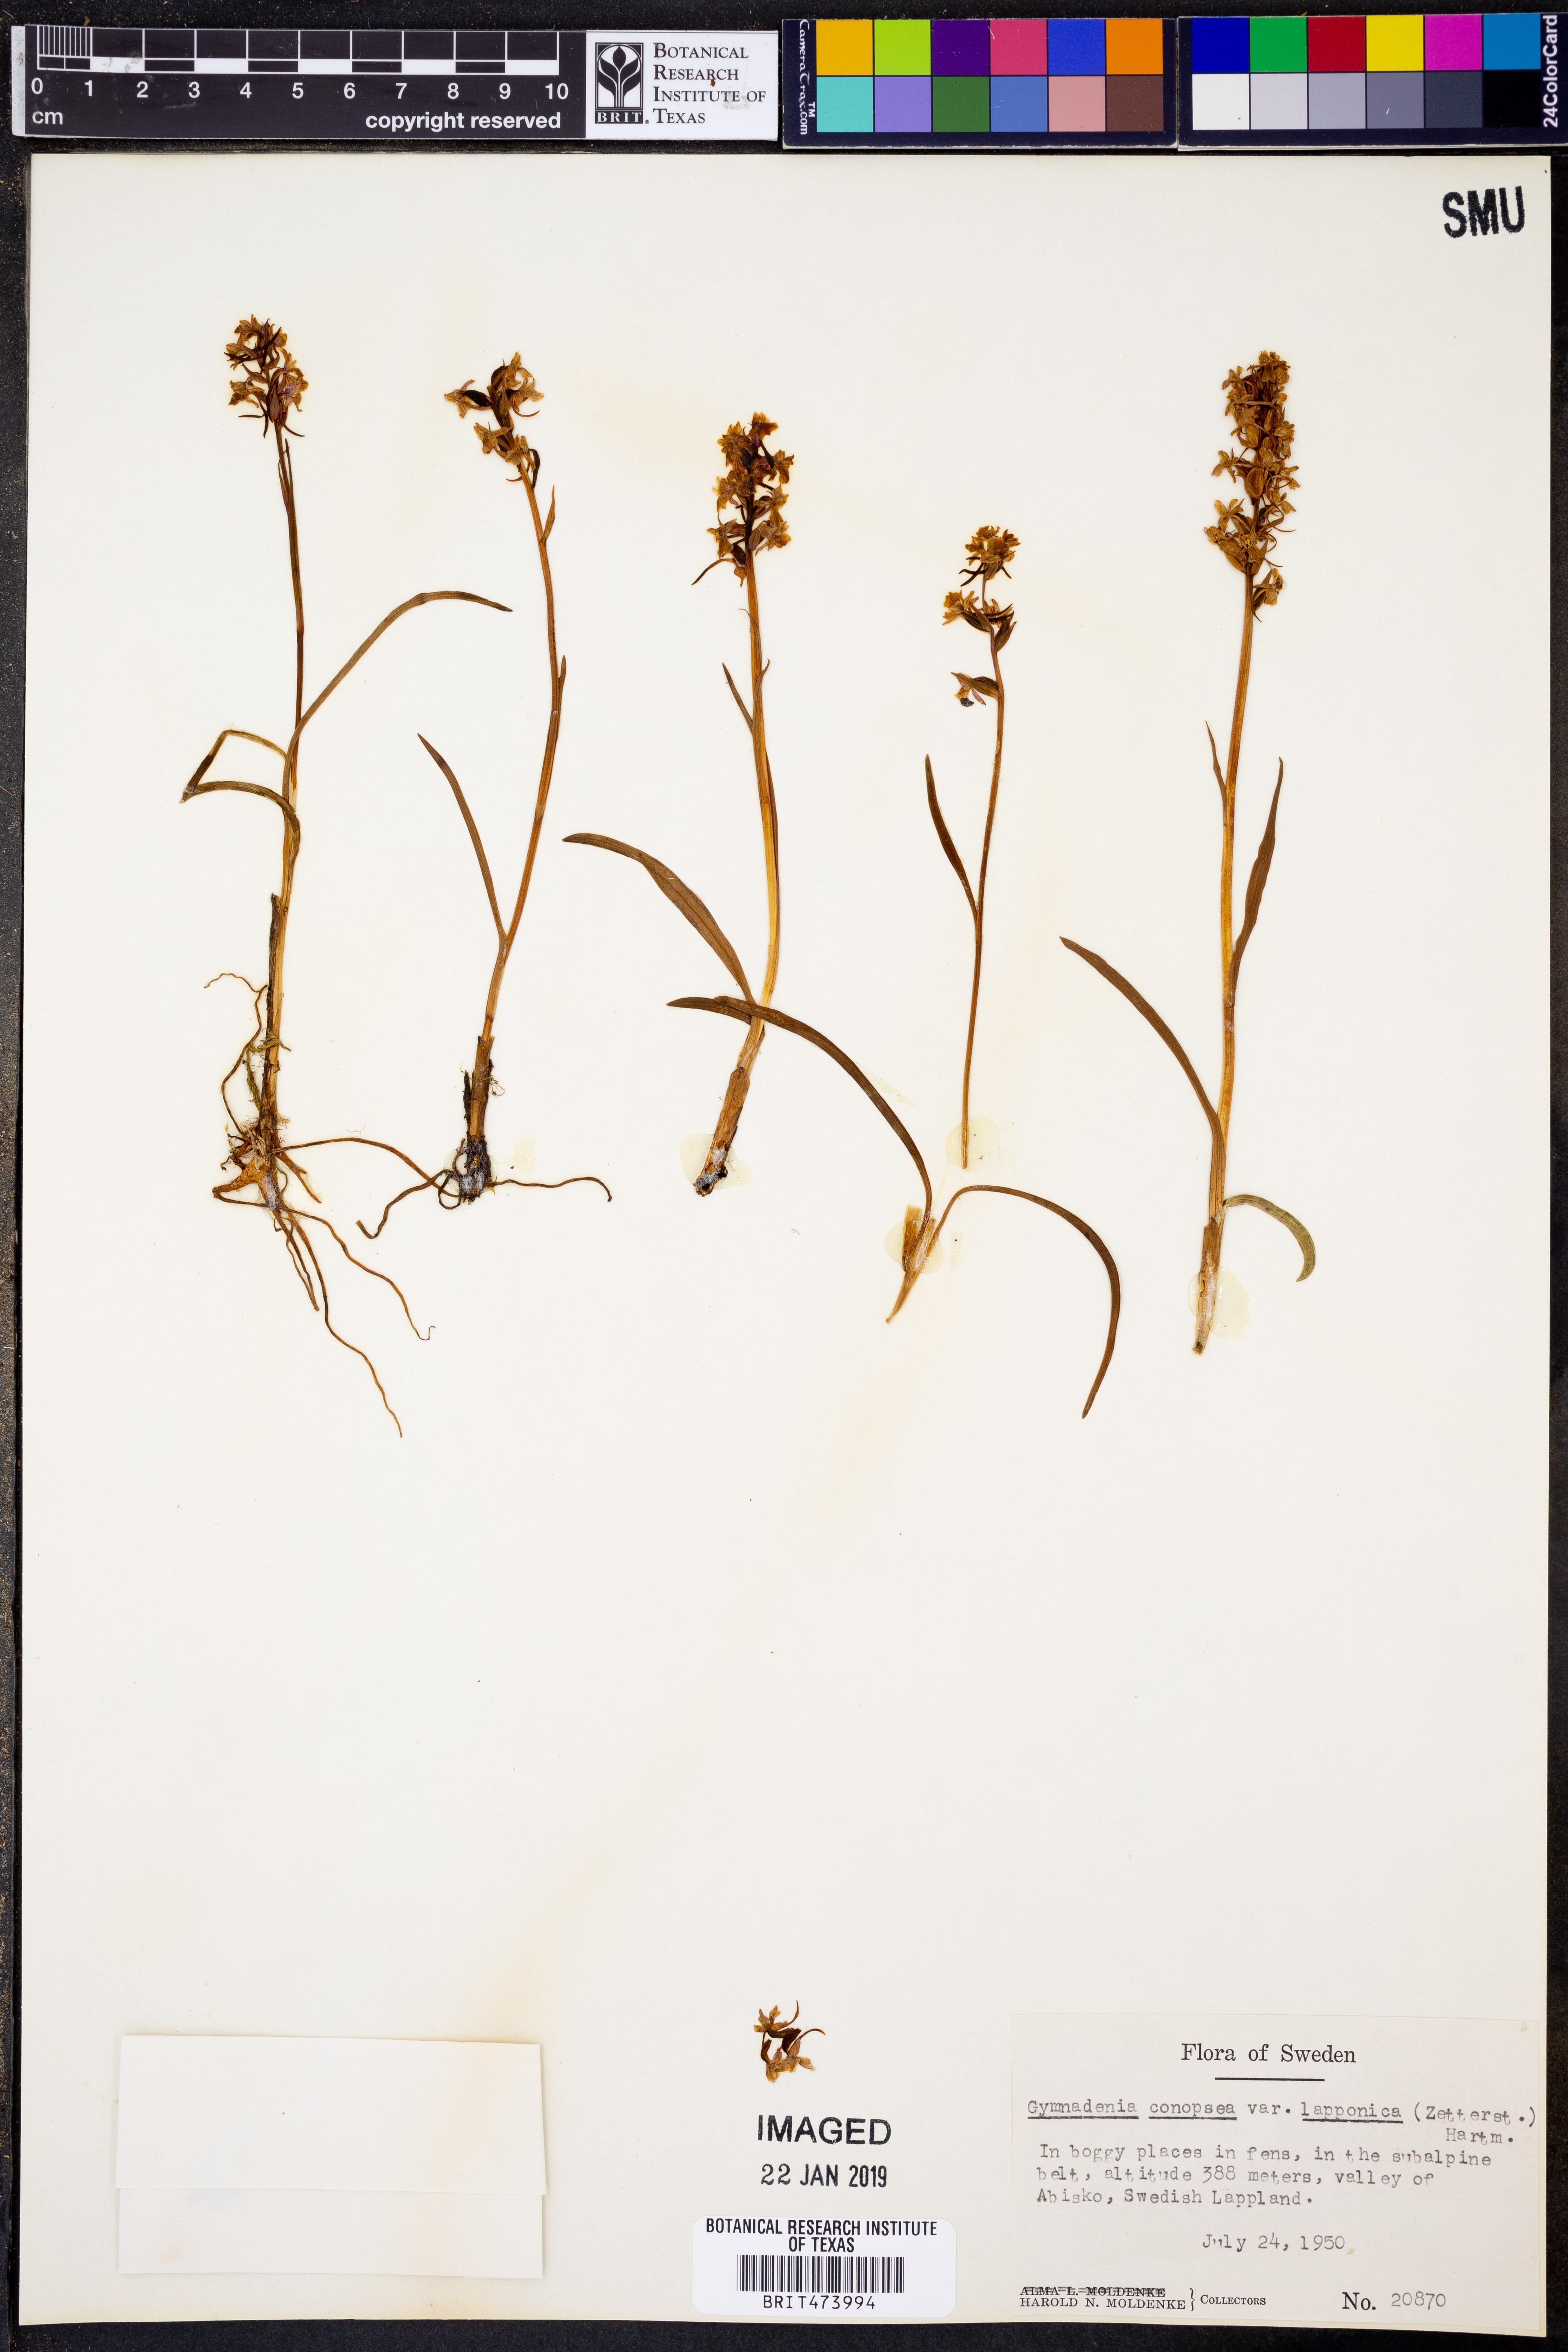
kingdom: Plantae
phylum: Tracheophyta
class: Liliopsida
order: Asparagales
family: Orchidaceae
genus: Gymnadenia
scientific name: Gymnadenia conopsea
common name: Fragrant orchid
